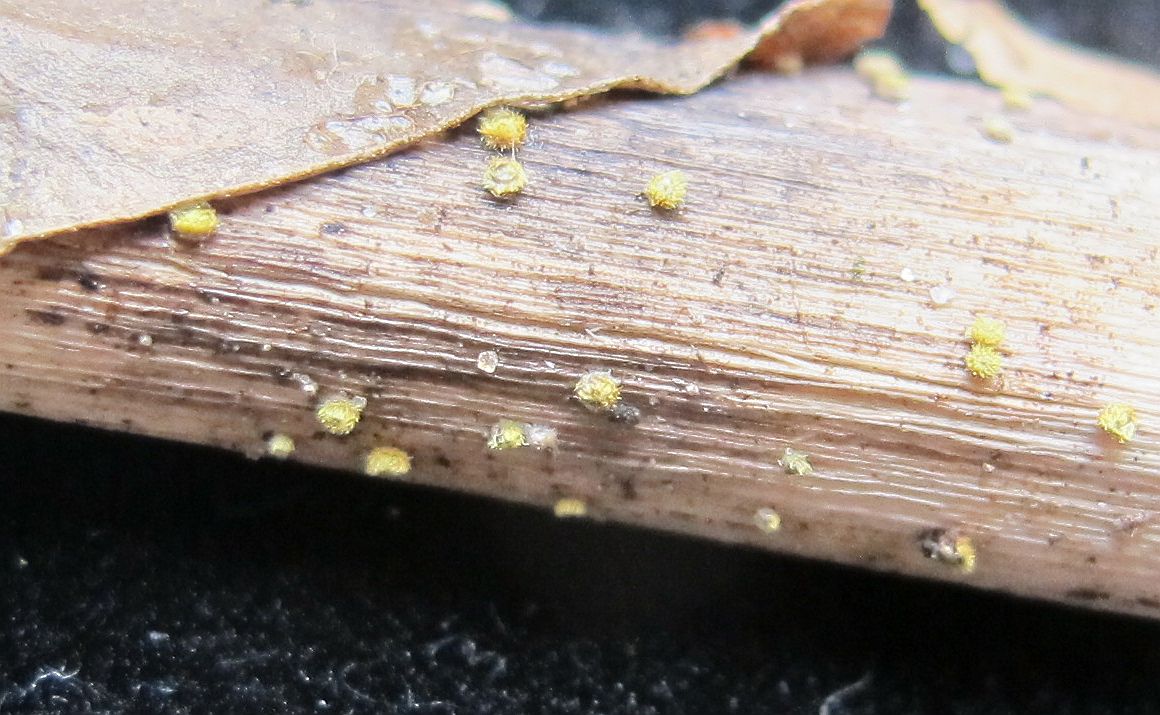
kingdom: Fungi
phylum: Ascomycota
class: Leotiomycetes
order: Helotiales
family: Lachnaceae
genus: Lachnum
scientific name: Lachnum sulphureum
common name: svovlhåret frynseskive
